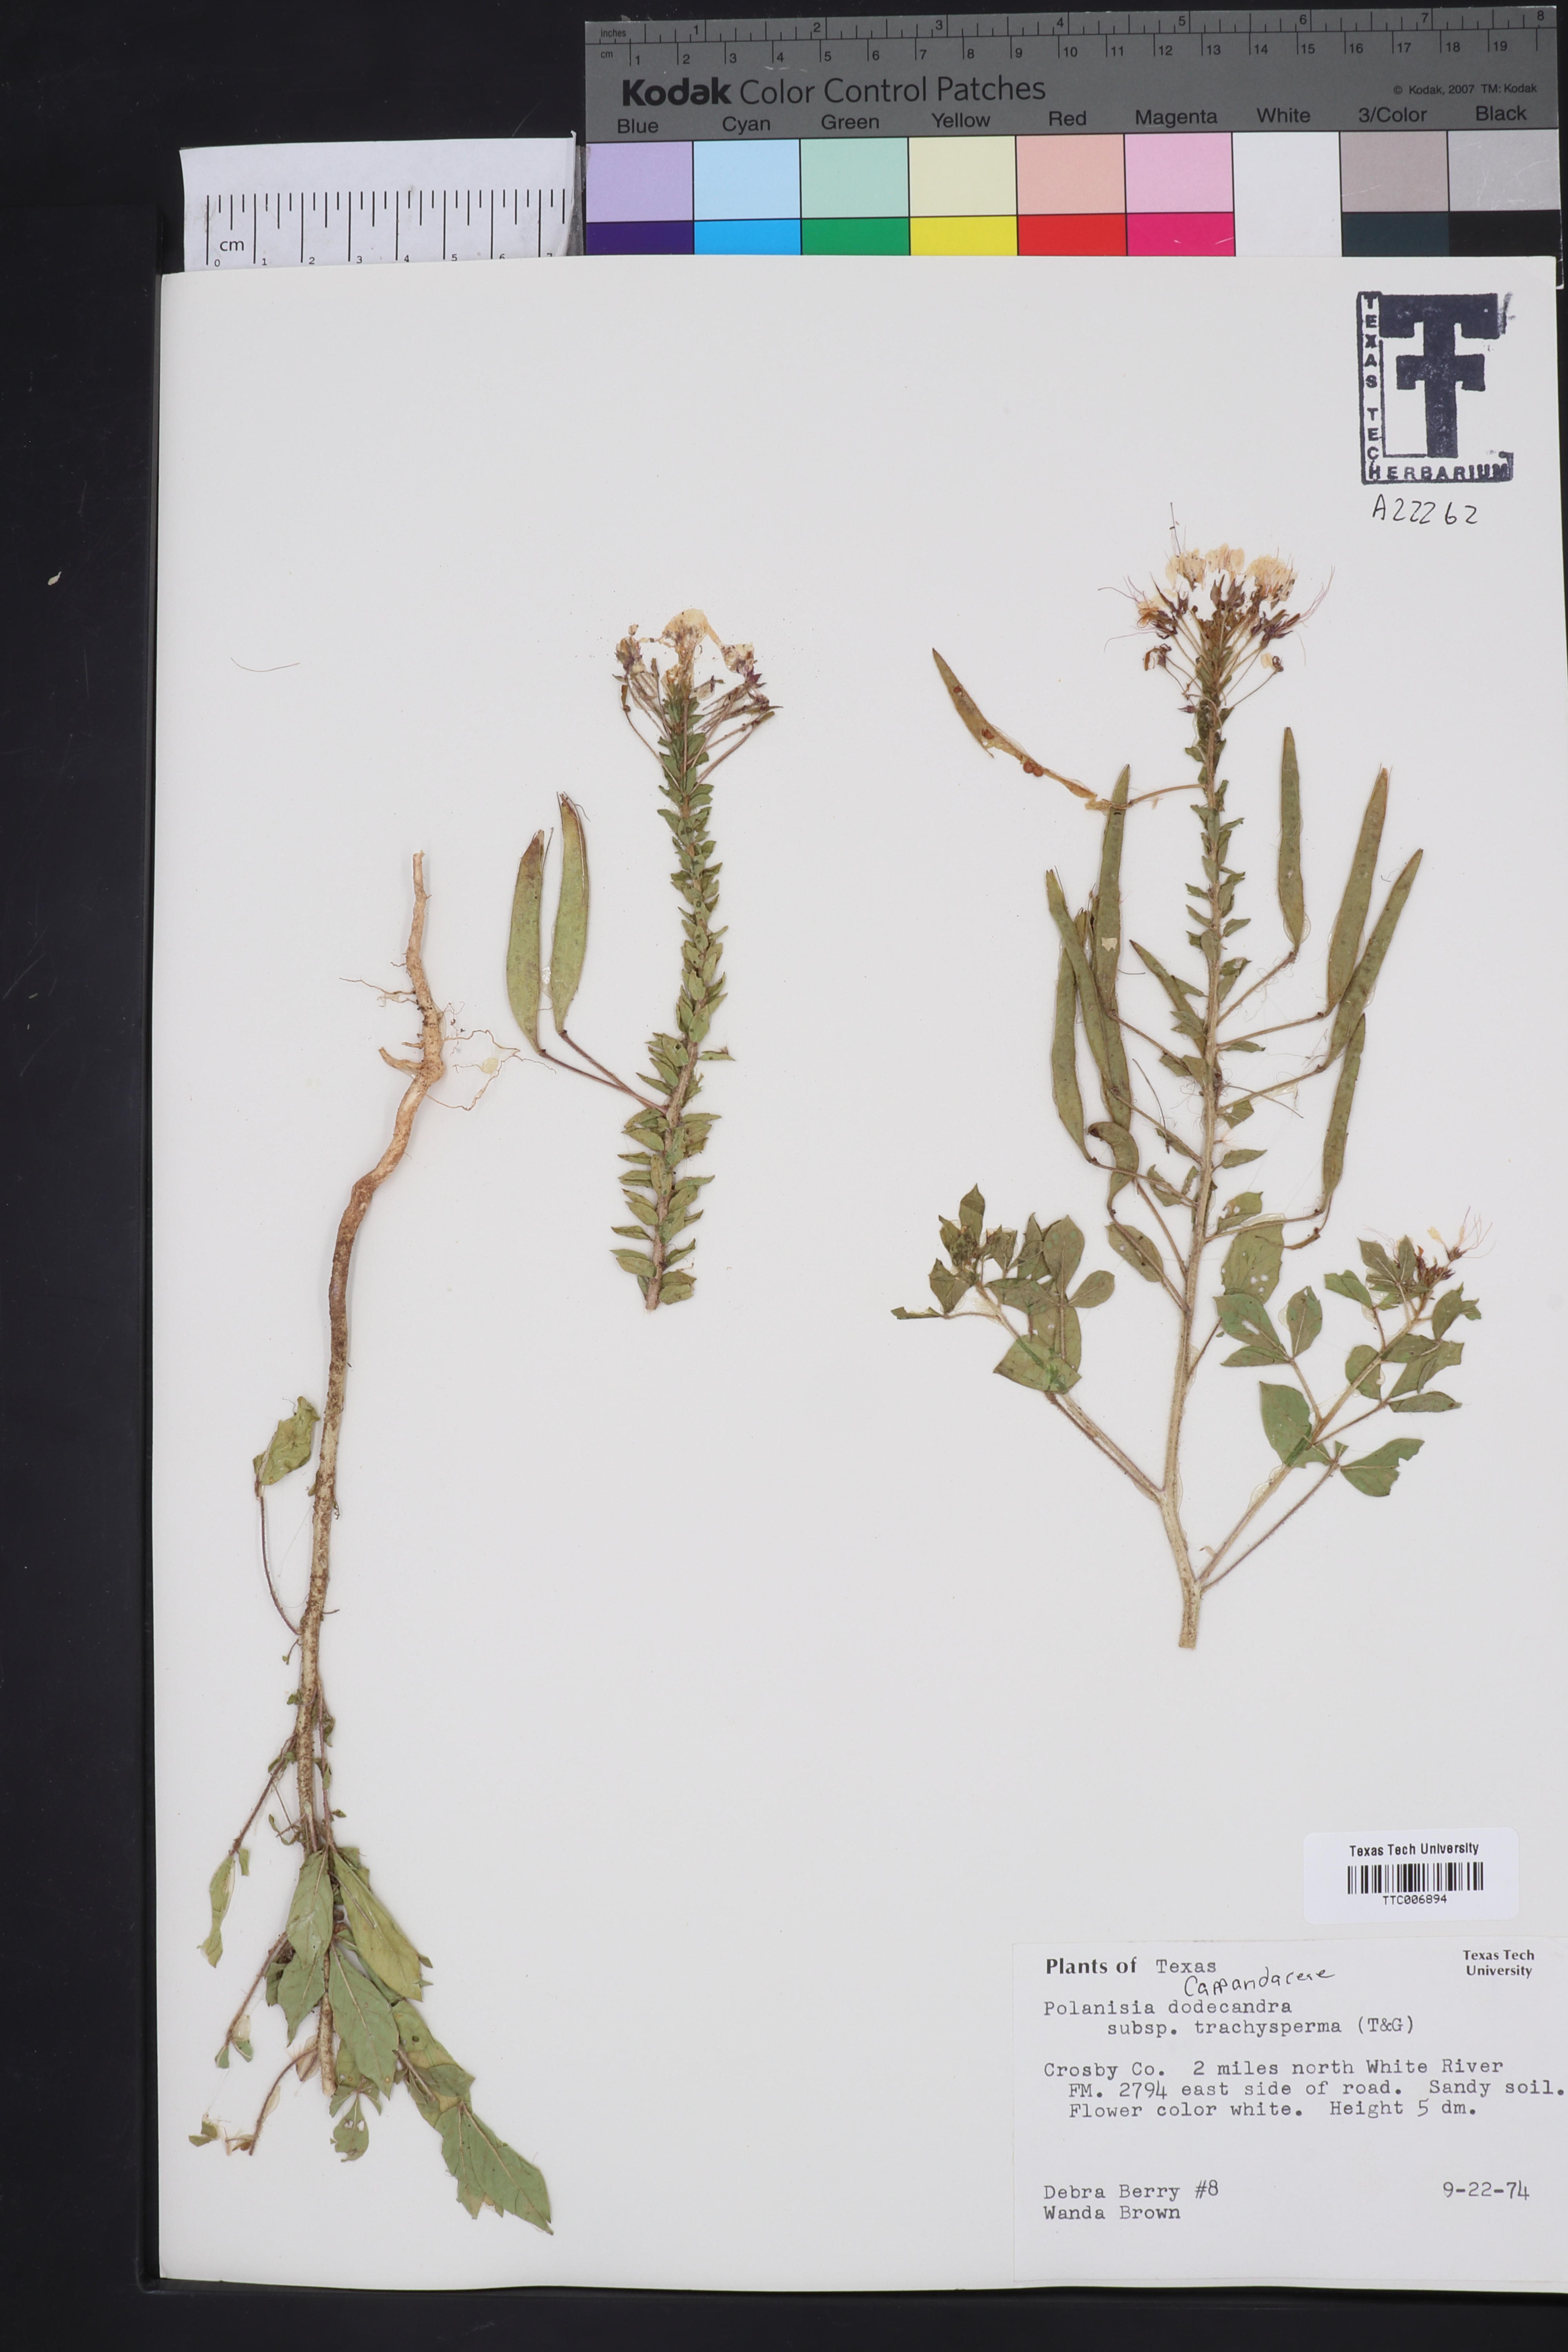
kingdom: Plantae
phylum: Tracheophyta
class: Magnoliopsida
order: Brassicales
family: Cleomaceae
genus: Polanisia
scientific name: Polanisia trachysperma
